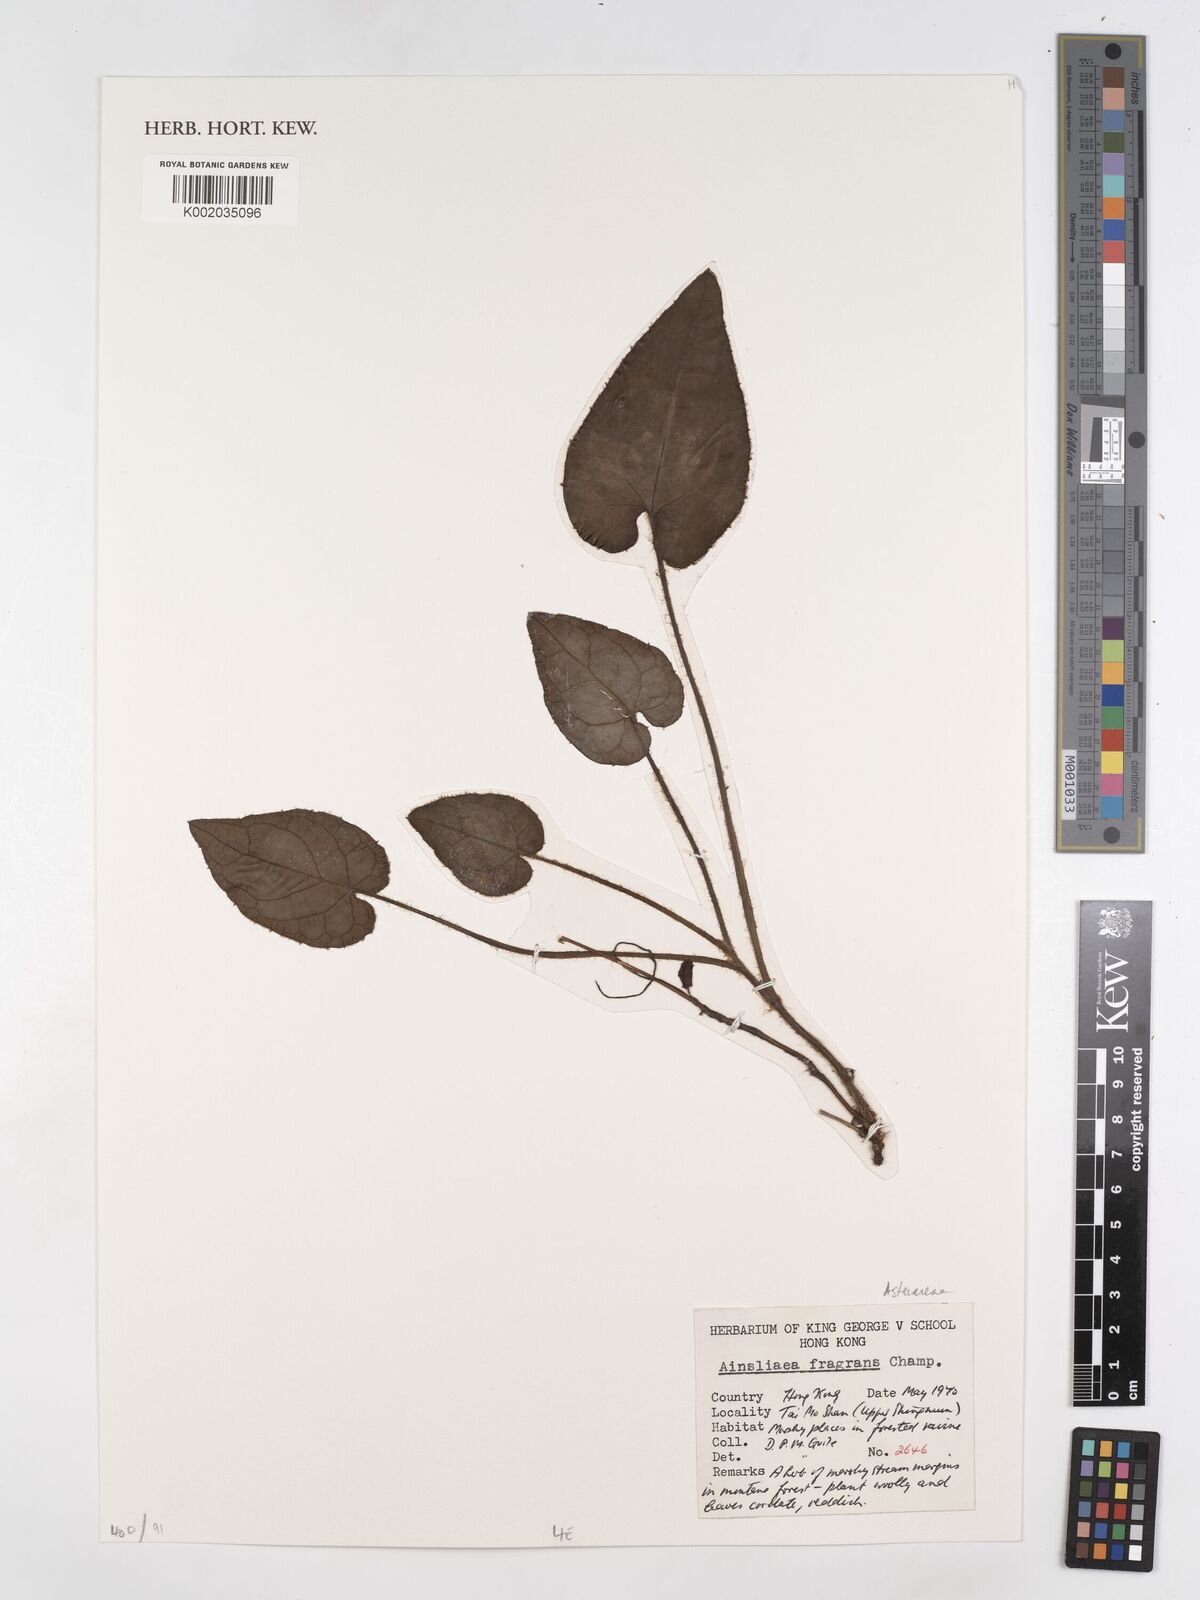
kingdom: Plantae
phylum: Tracheophyta
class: Magnoliopsida
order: Asterales
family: Asteraceae
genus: Ainsliaea
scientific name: Ainsliaea fragrans
